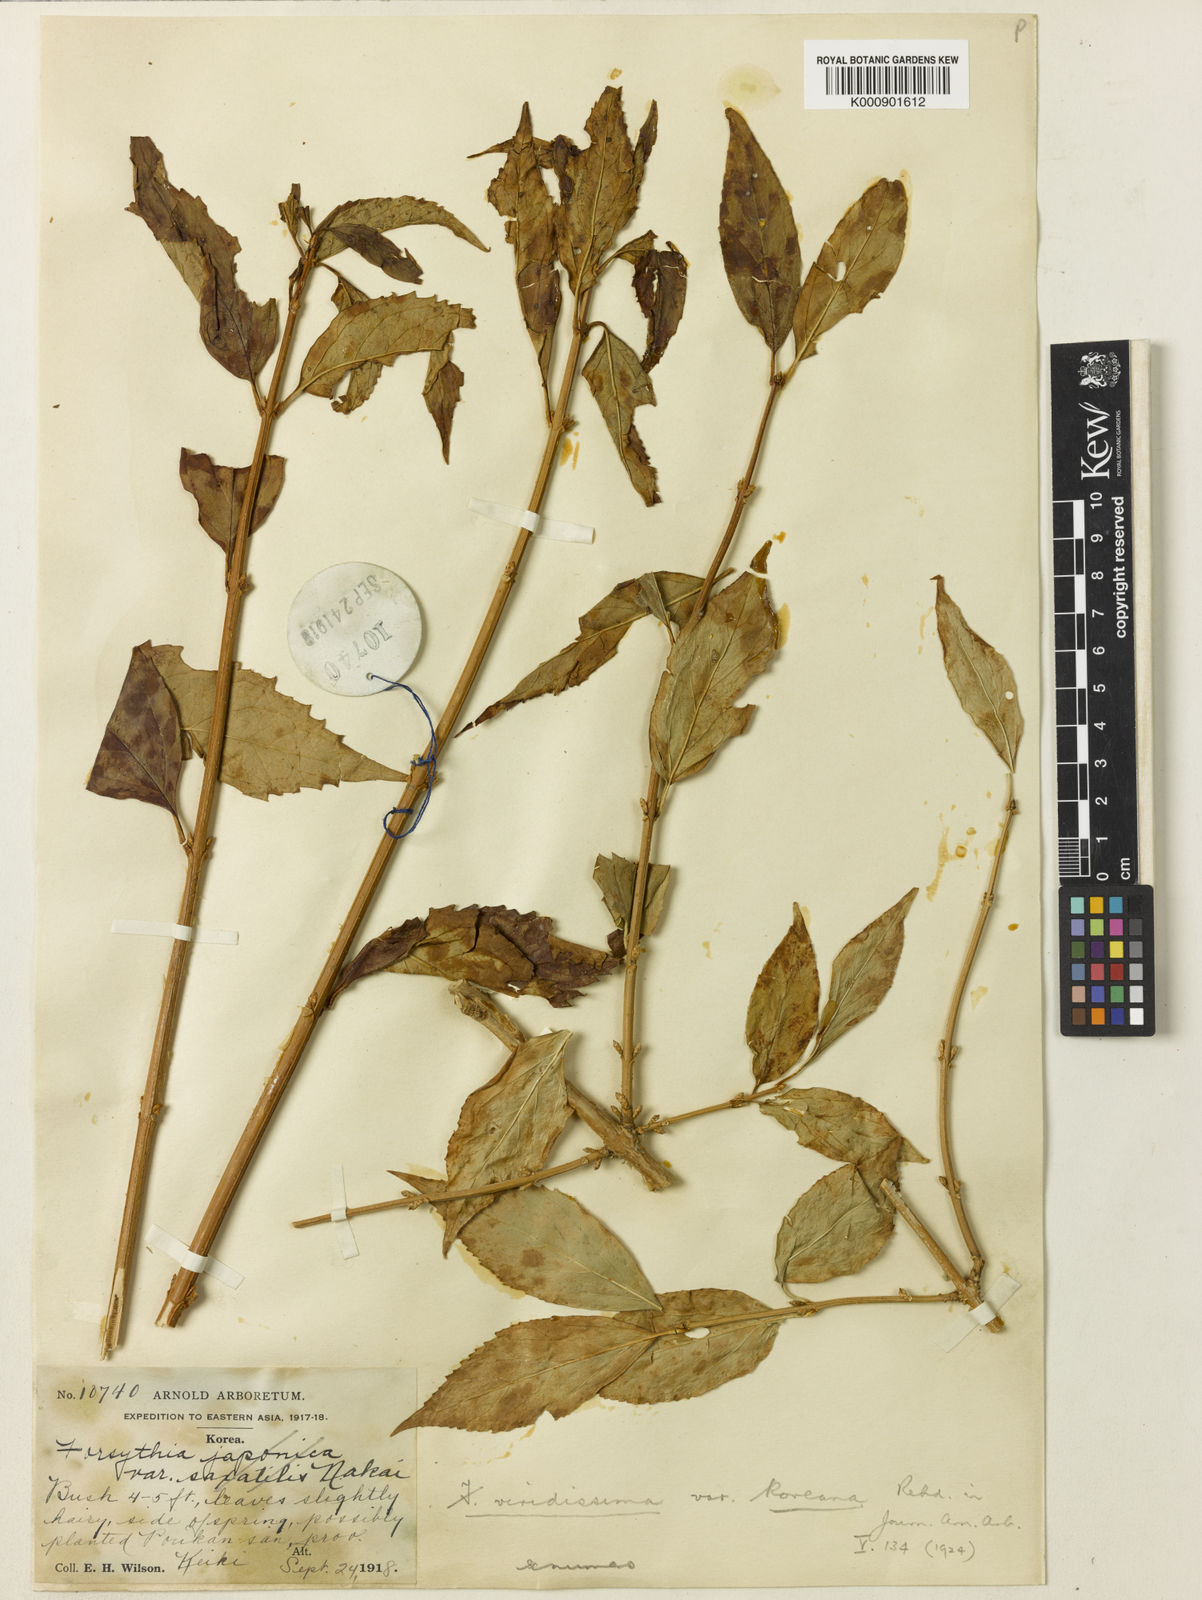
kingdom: Plantae
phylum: Tracheophyta
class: Magnoliopsida
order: Lamiales
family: Oleaceae
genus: Forsythia
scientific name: Forsythia viridissima
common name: Greenstem forsythia
